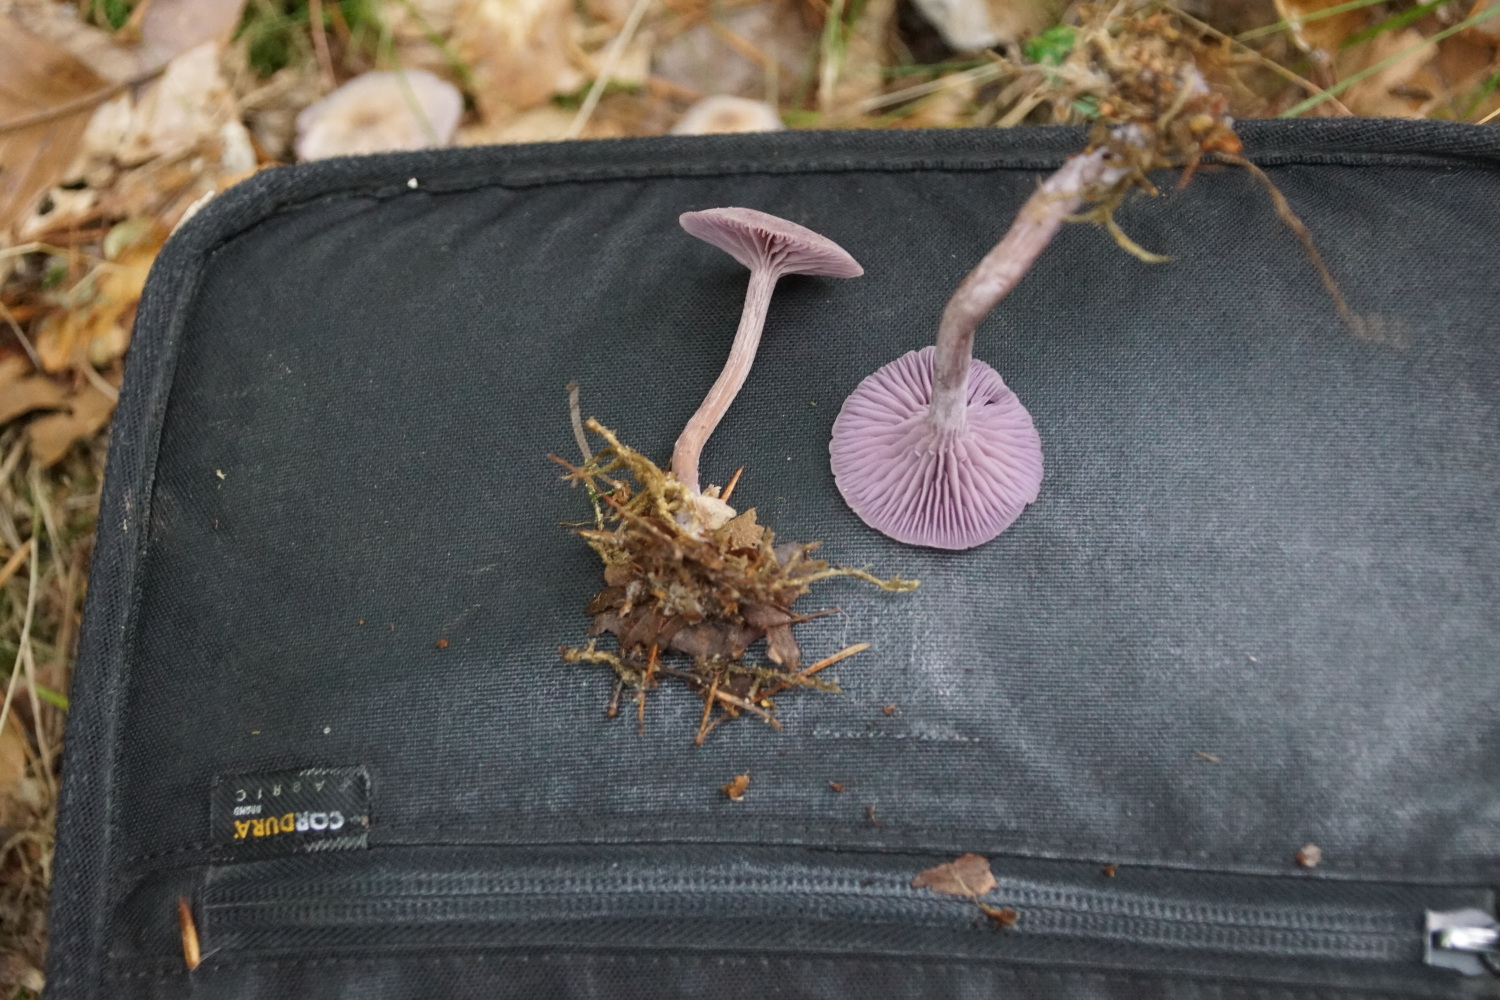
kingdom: Fungi
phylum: Basidiomycota
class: Agaricomycetes
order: Agaricales
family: Hydnangiaceae
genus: Laccaria
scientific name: Laccaria amethystina
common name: violet ametysthat
